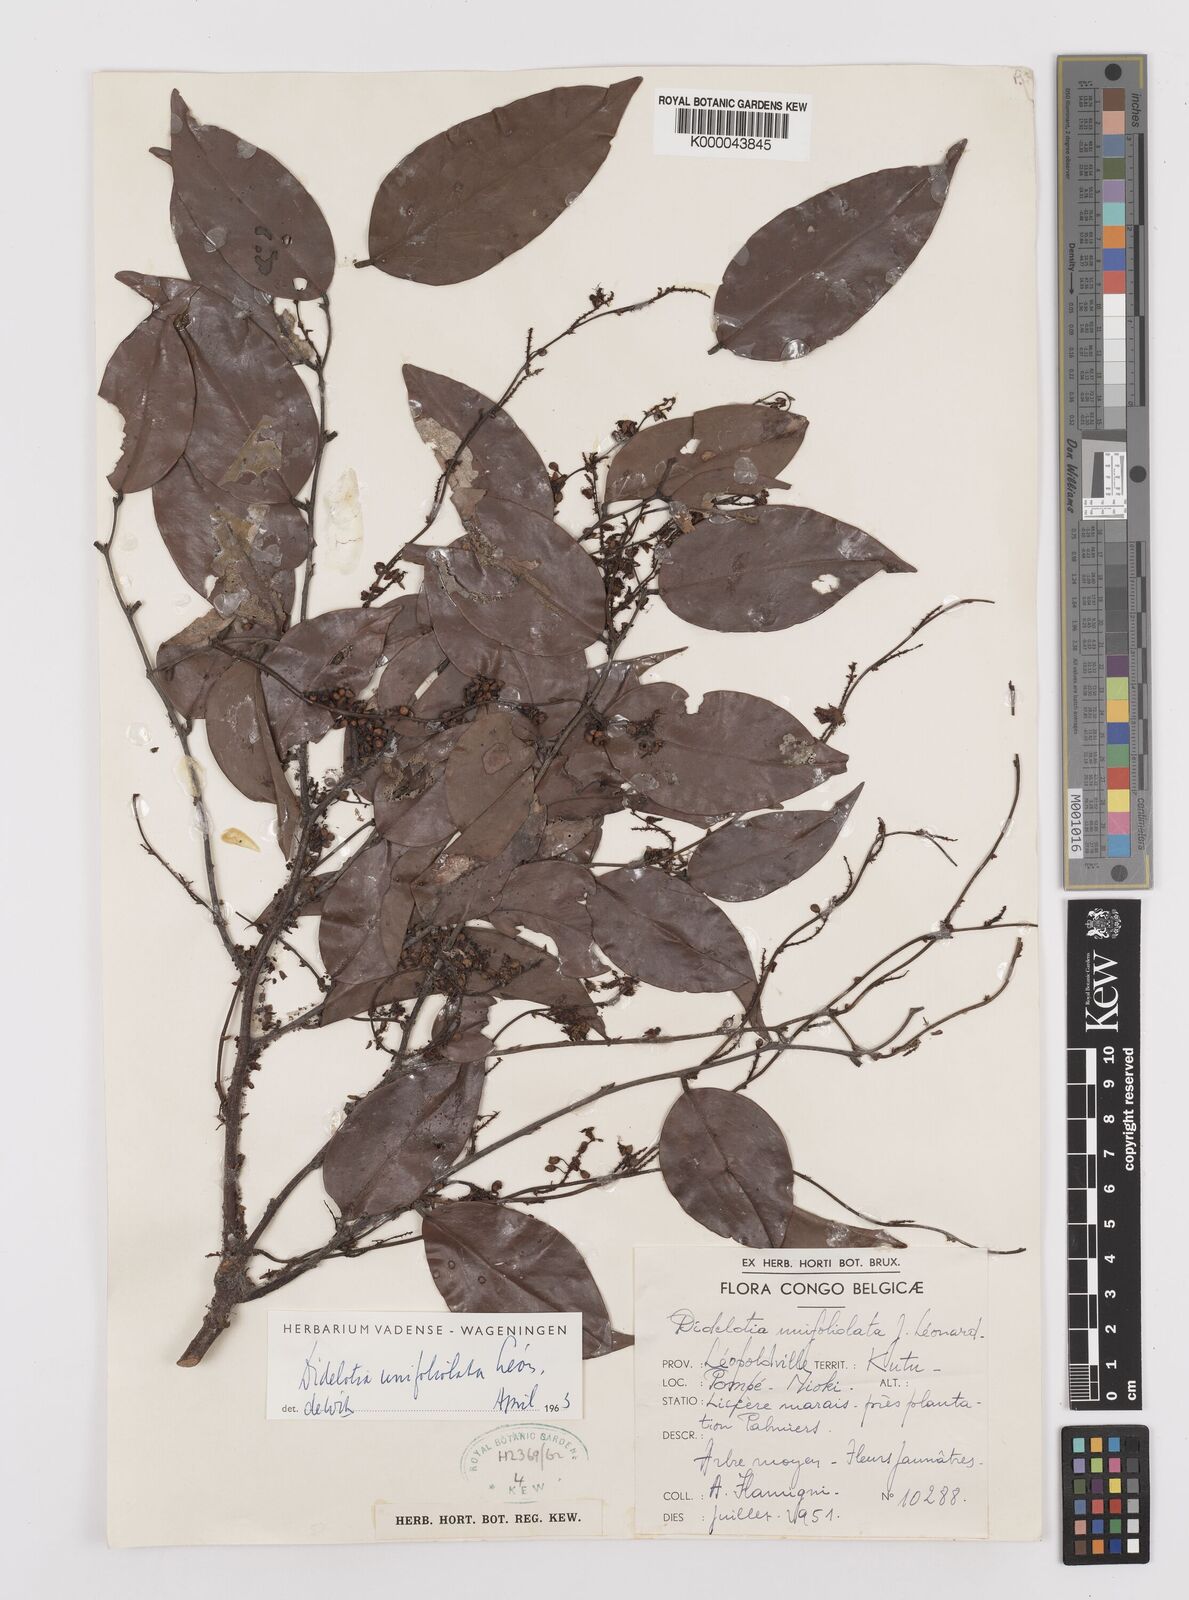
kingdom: Plantae
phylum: Tracheophyta
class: Magnoliopsida
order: Fabales
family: Fabaceae
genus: Didelotia
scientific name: Didelotia
